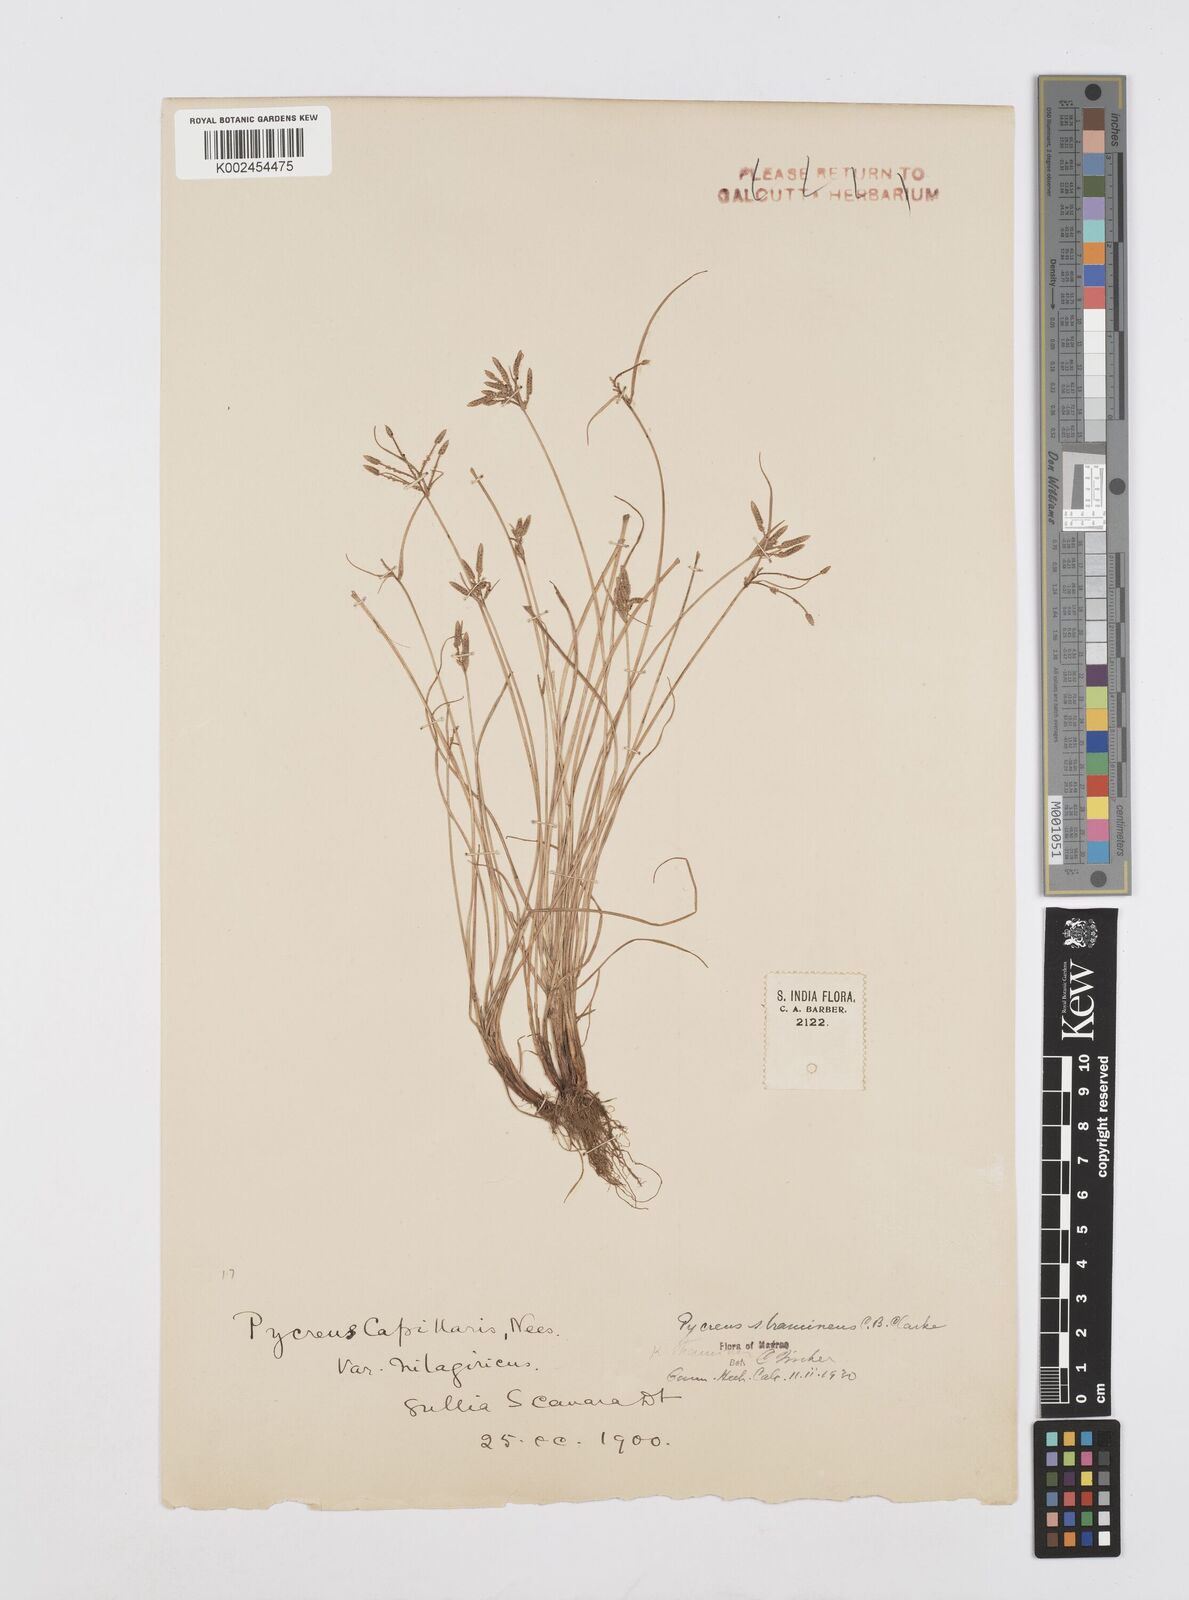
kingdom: Plantae
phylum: Tracheophyta
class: Liliopsida
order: Poales
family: Cyperaceae
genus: Cyperus
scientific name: Cyperus substramineus
